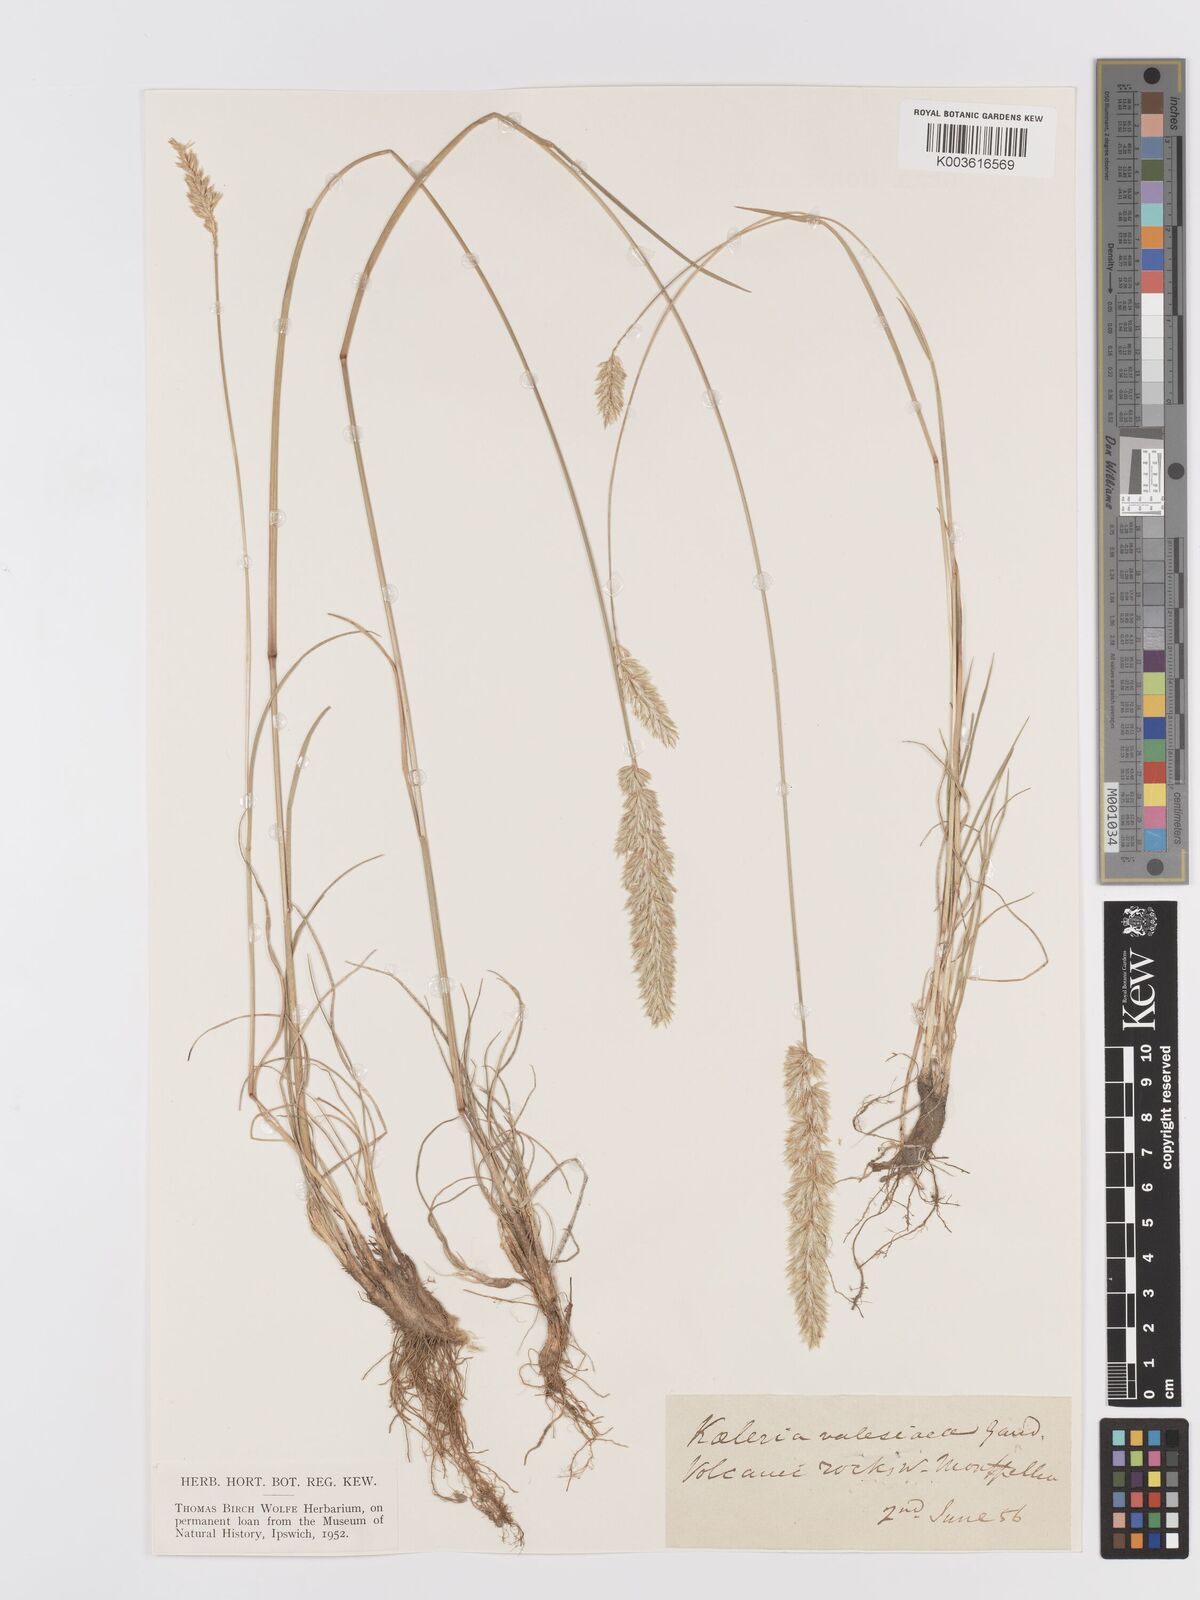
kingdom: Plantae
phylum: Tracheophyta
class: Liliopsida
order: Poales
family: Poaceae
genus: Koeleria
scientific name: Koeleria vallesiana
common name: Somerset hair-grass
